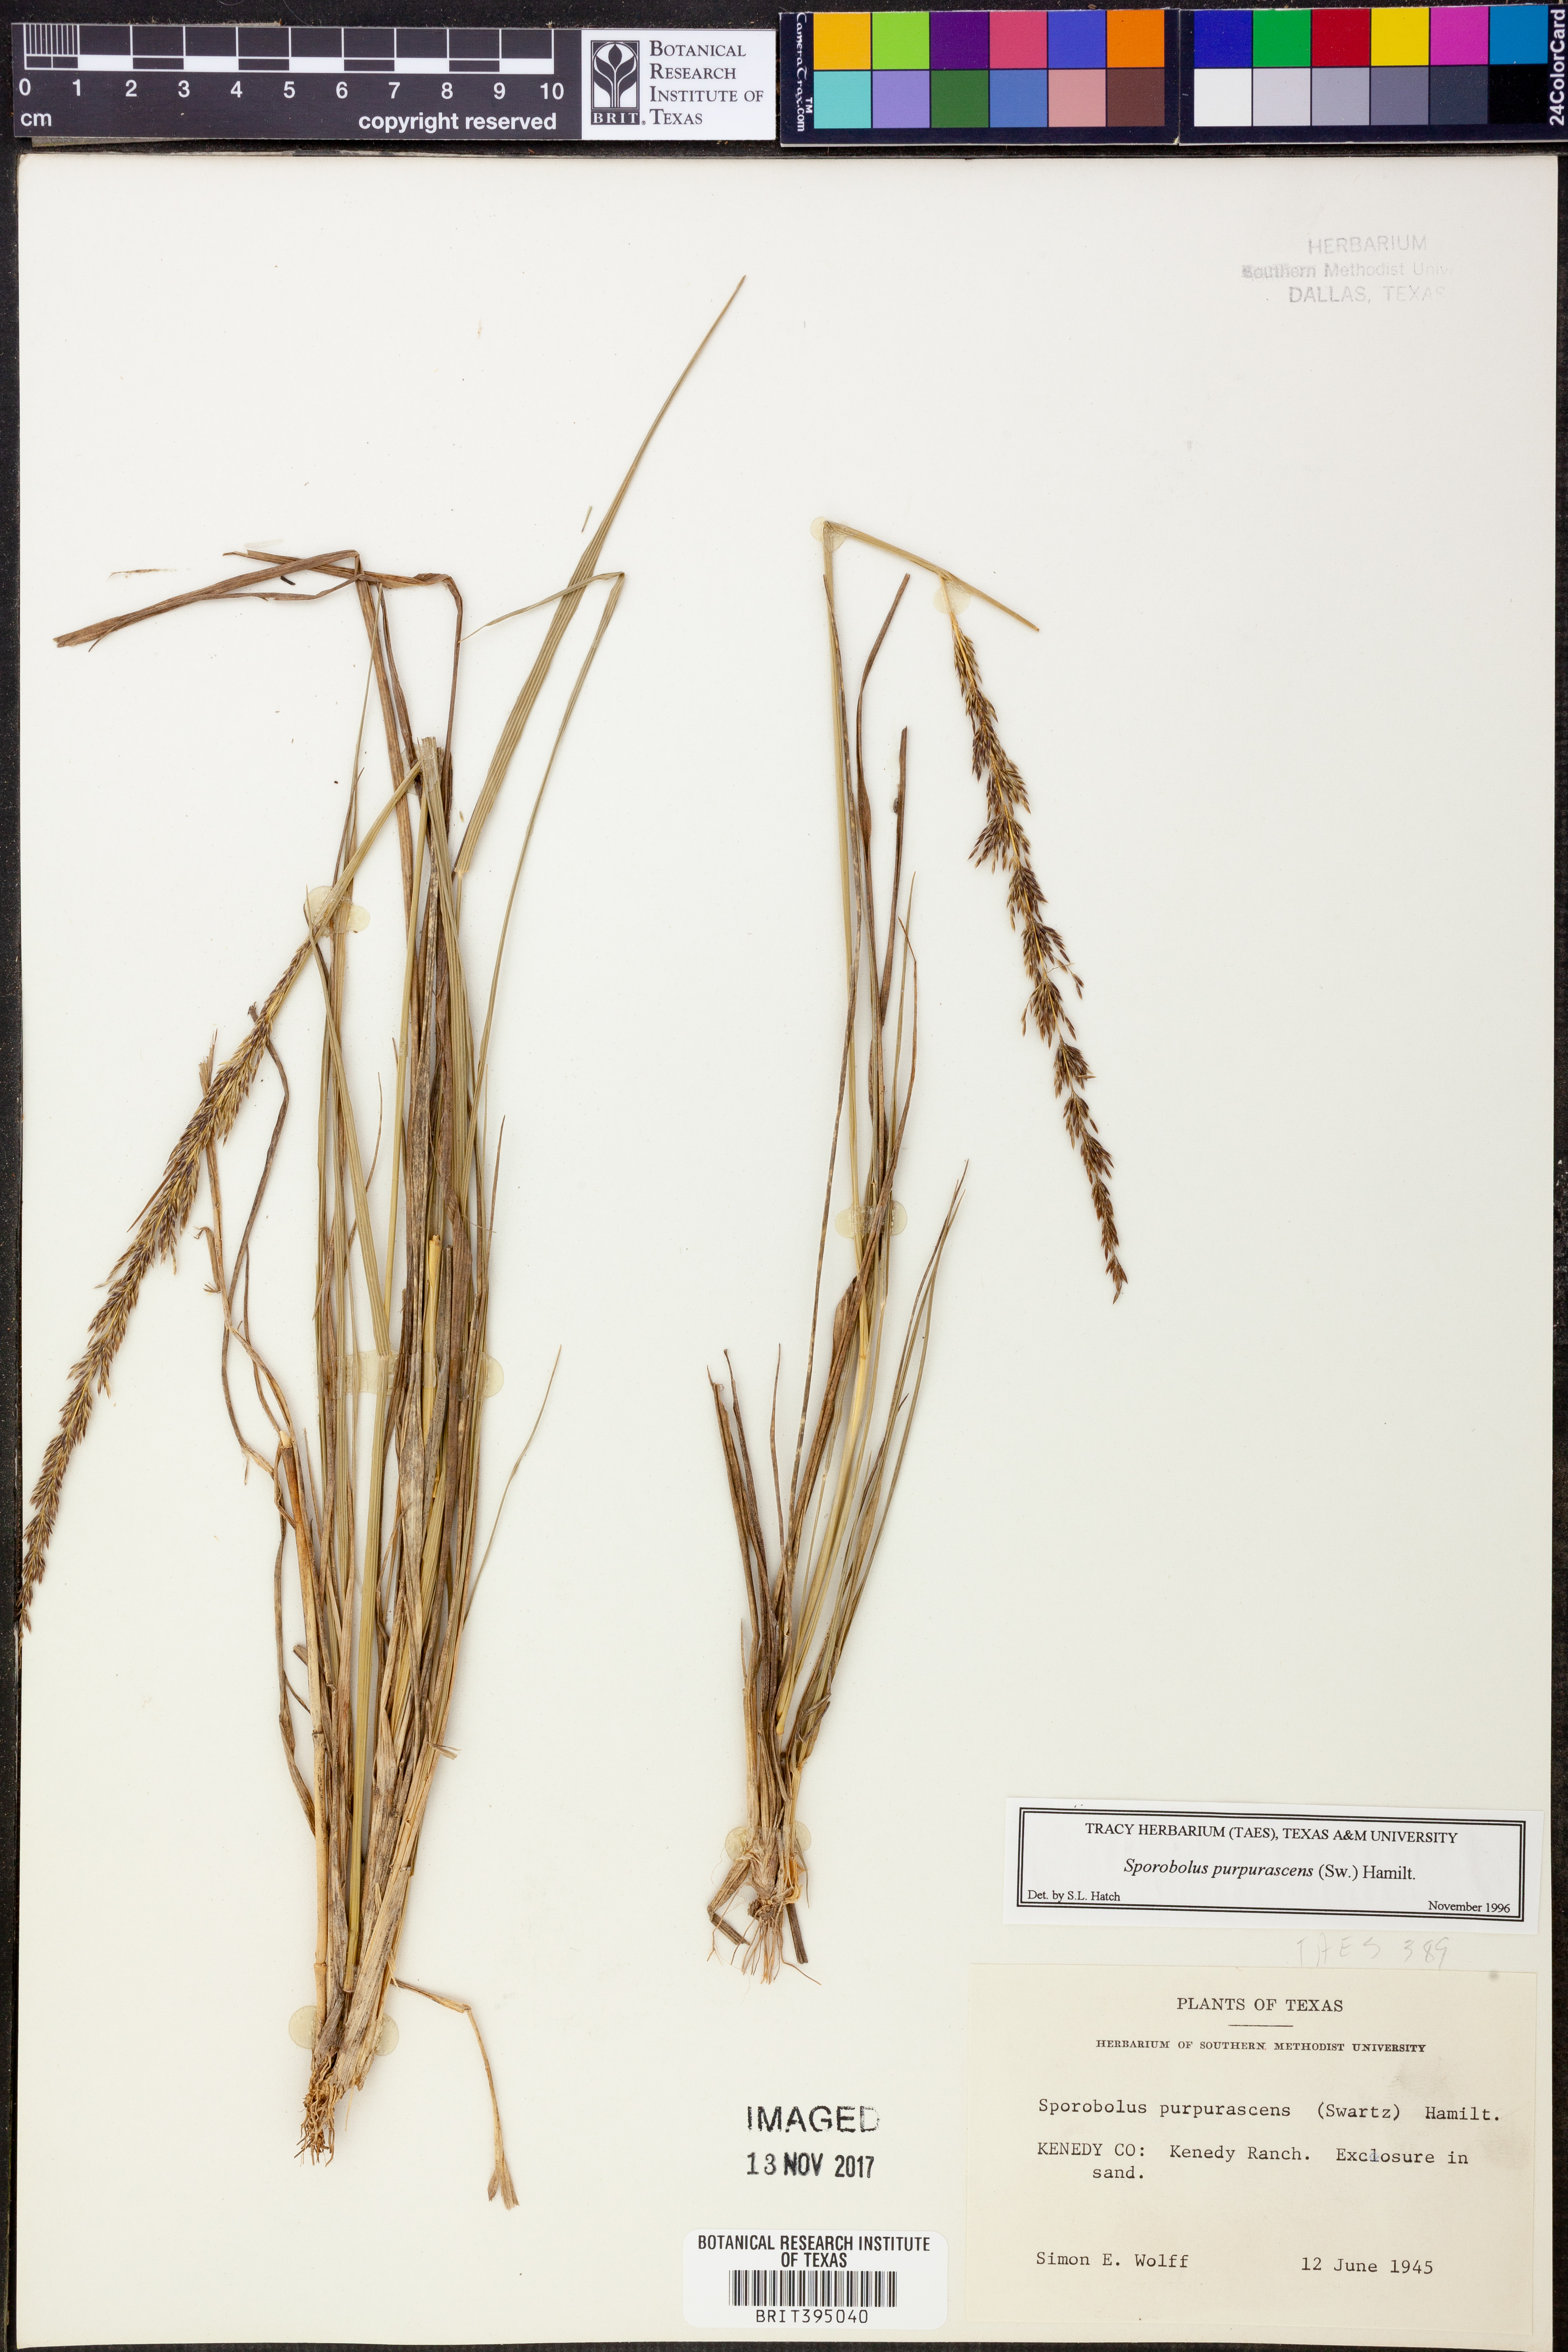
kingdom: Plantae
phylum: Tracheophyta
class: Liliopsida
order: Poales
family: Poaceae
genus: Sporobolus
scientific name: Sporobolus purpurascens
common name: Purple dropseed
